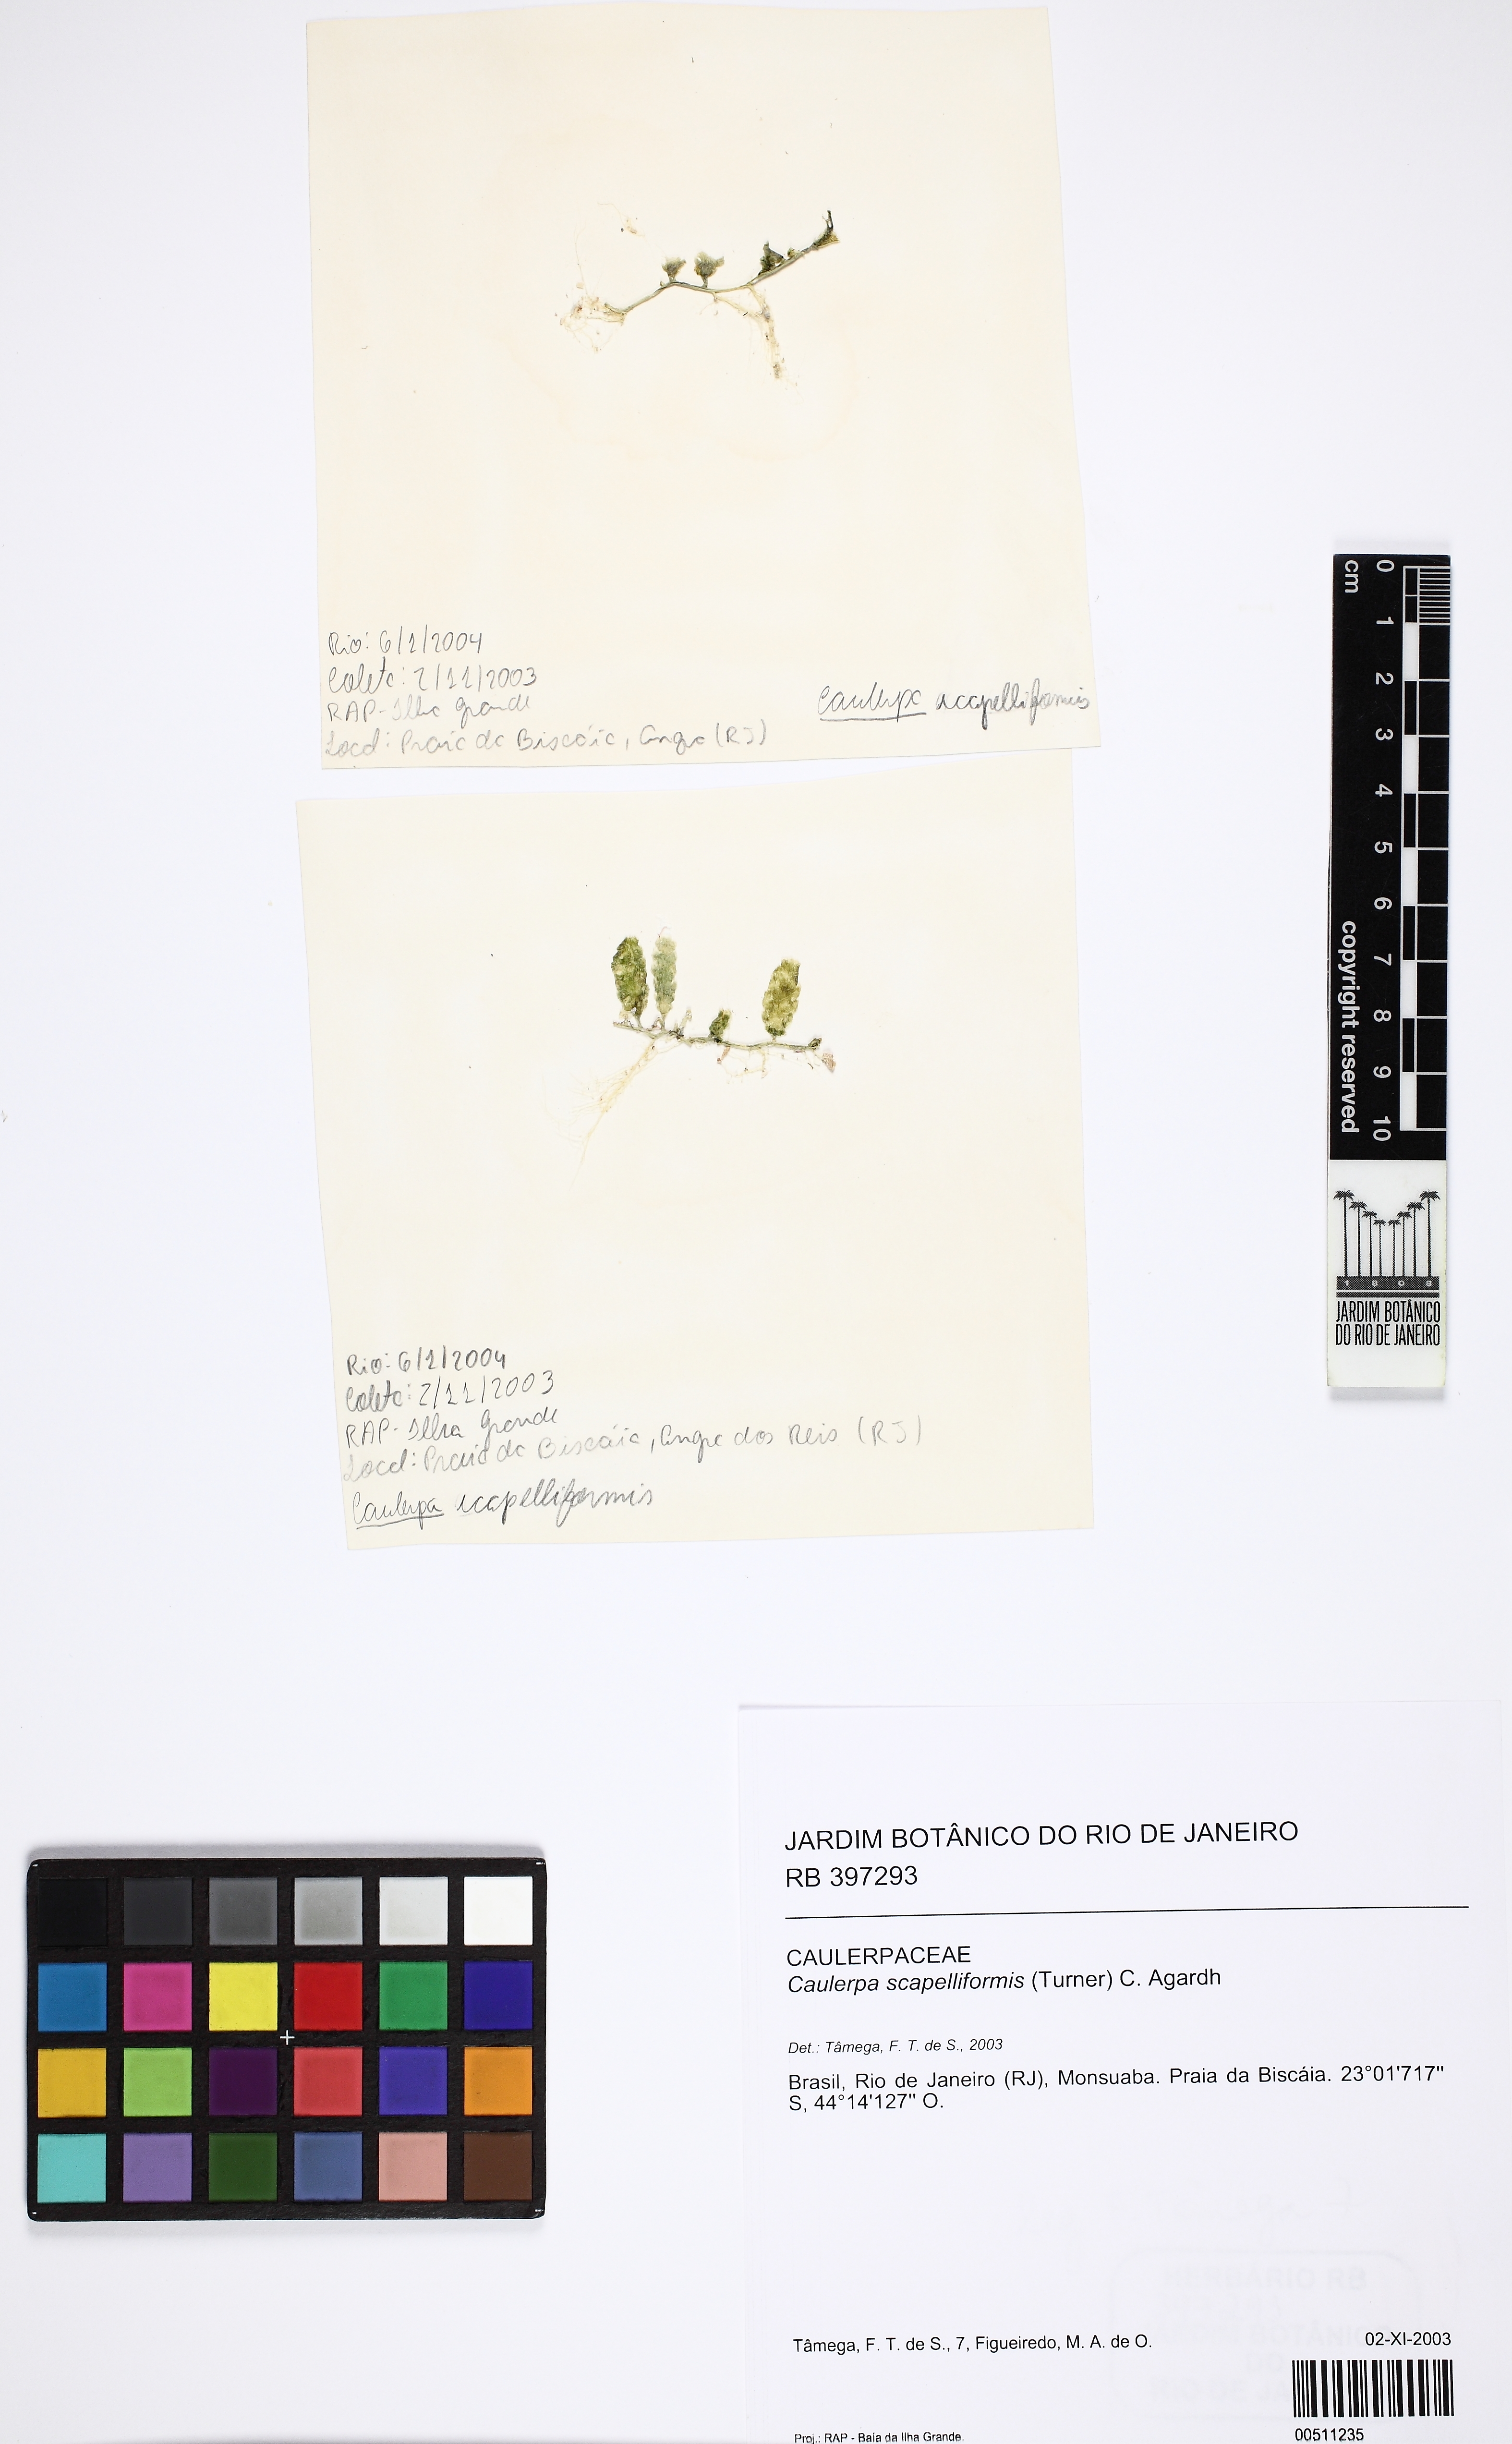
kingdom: Chromista
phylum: Ochrophyta
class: Phaeophyceae
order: Fucales
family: Fucaceae
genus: Fucus
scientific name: Fucus Caulerpa scalpelliformis
